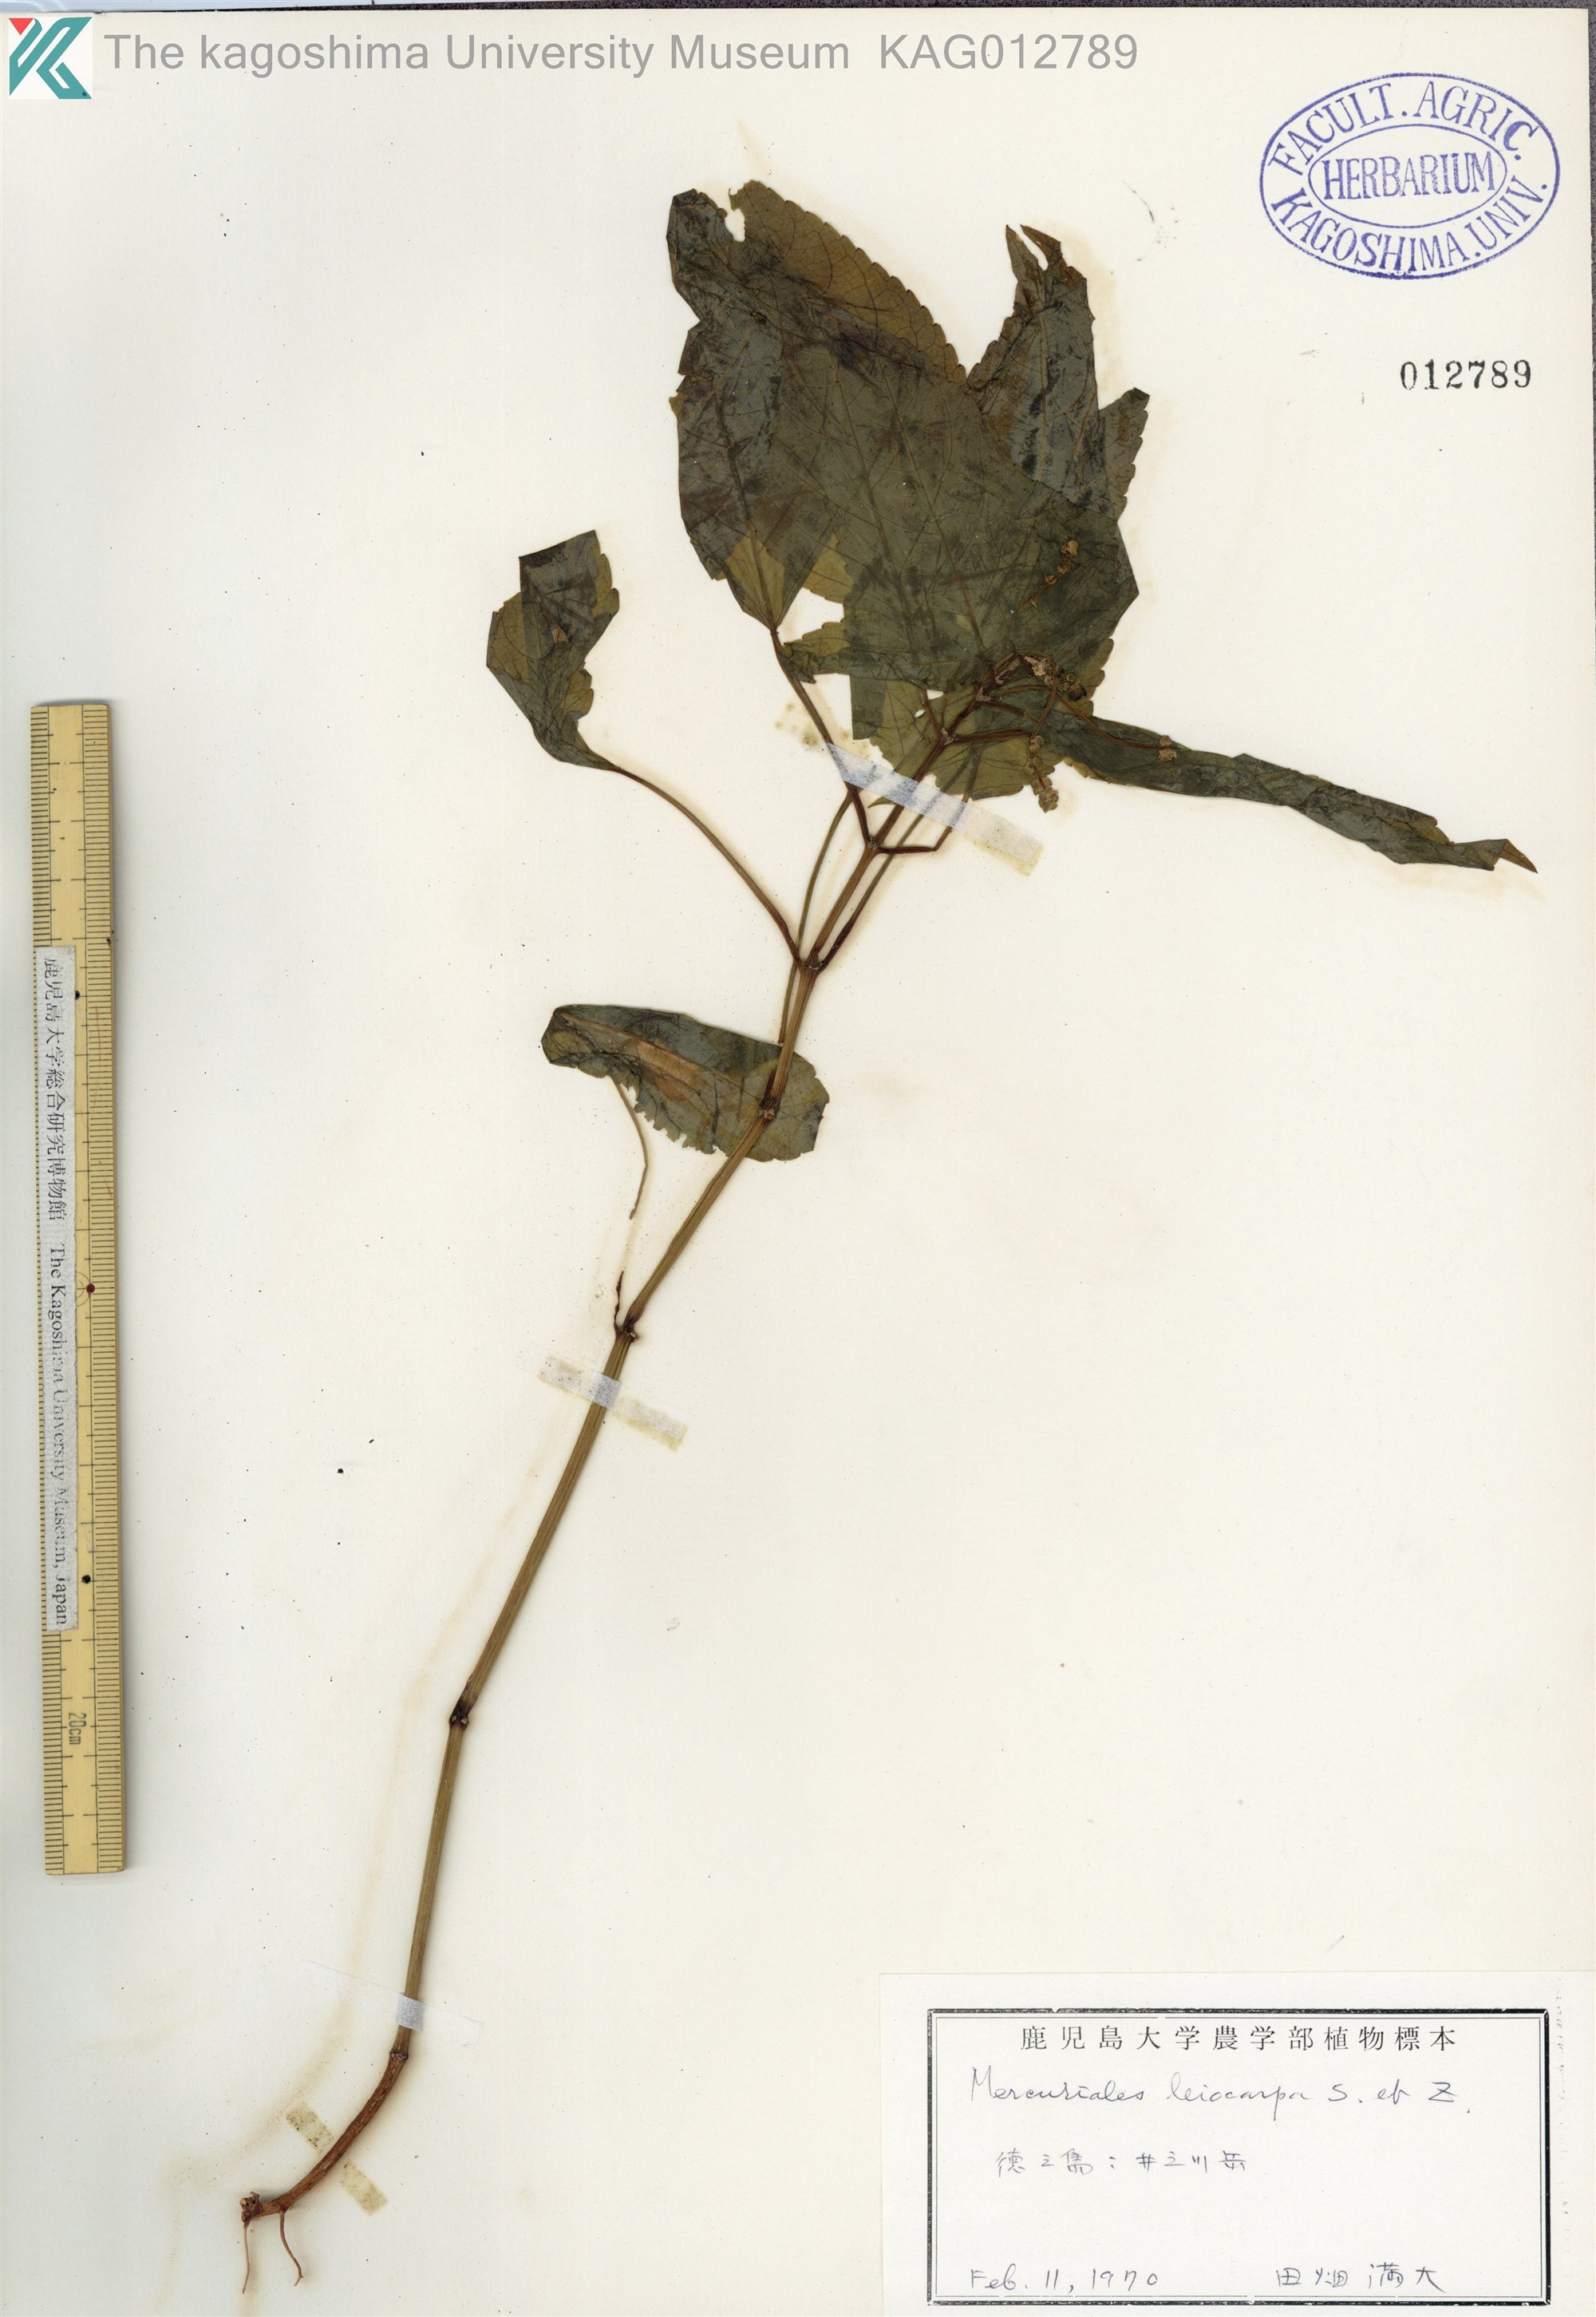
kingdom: Plantae
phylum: Tracheophyta
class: Magnoliopsida
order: Malpighiales
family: Euphorbiaceae
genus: Mercurialis
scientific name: Mercurialis leiocarpa
